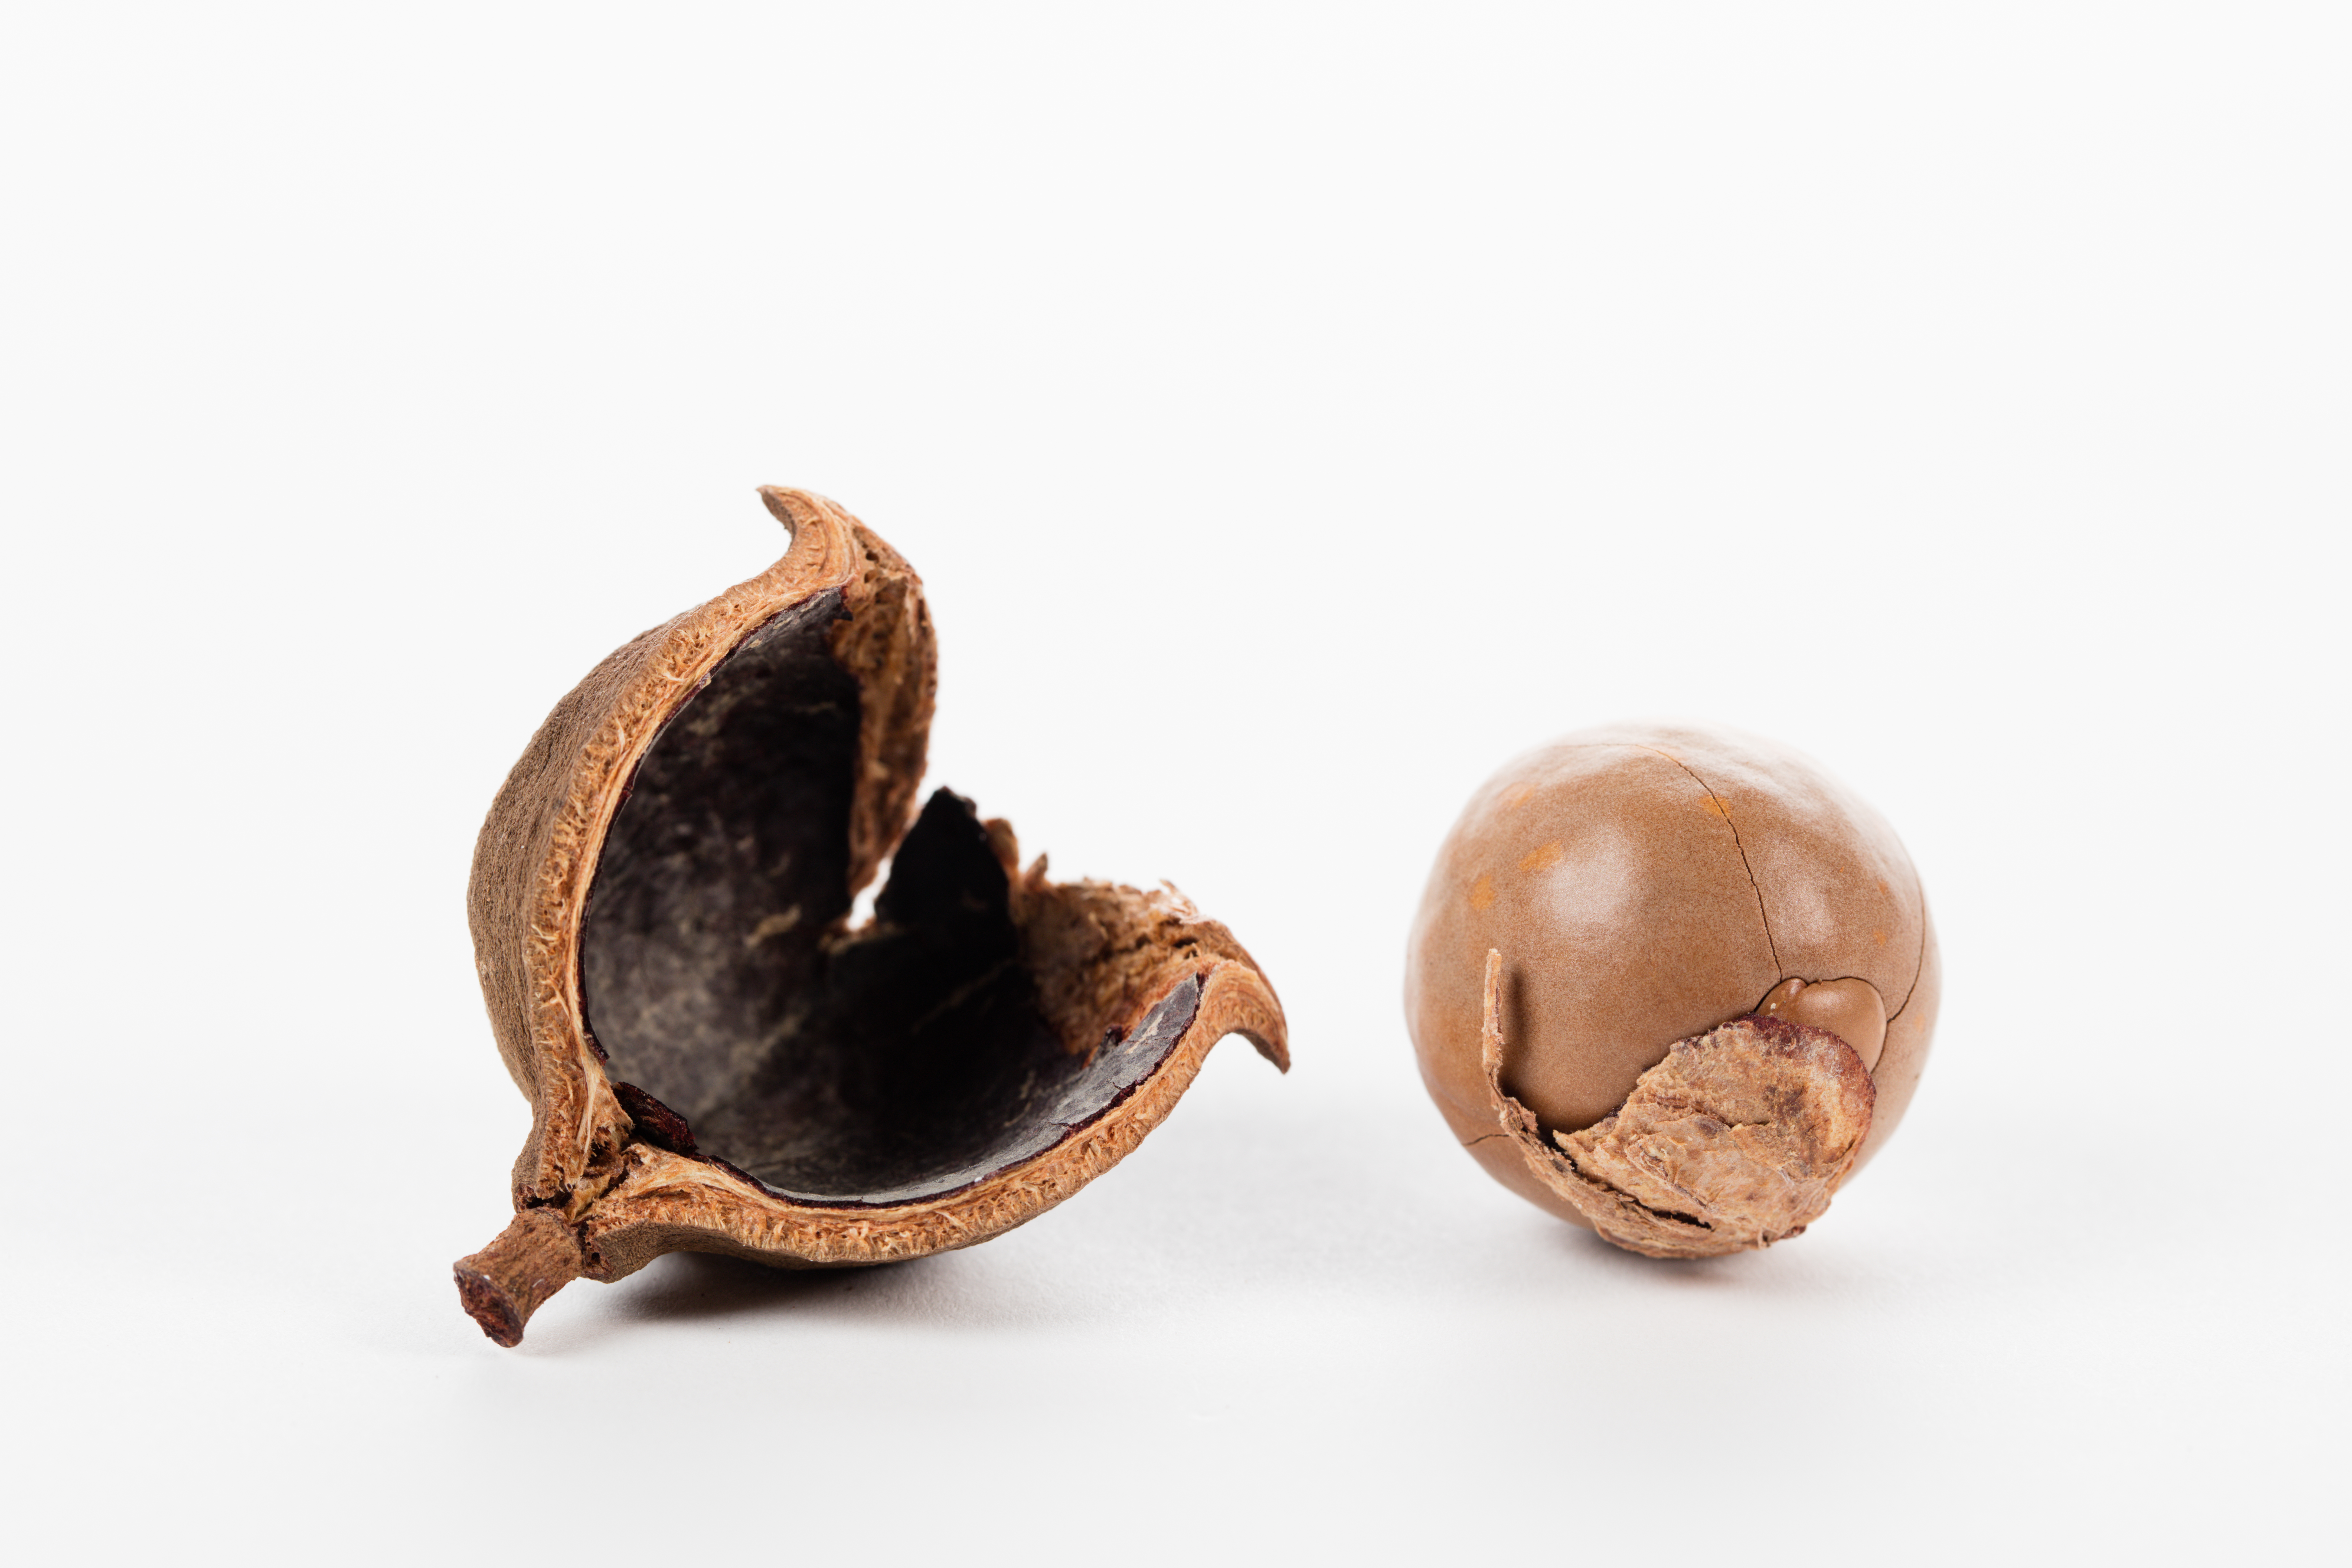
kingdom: Plantae
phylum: Tracheophyta
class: Magnoliopsida
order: Proteales
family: Proteaceae
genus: Macadamia
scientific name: Macadamia integrifolia
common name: Macadamia
